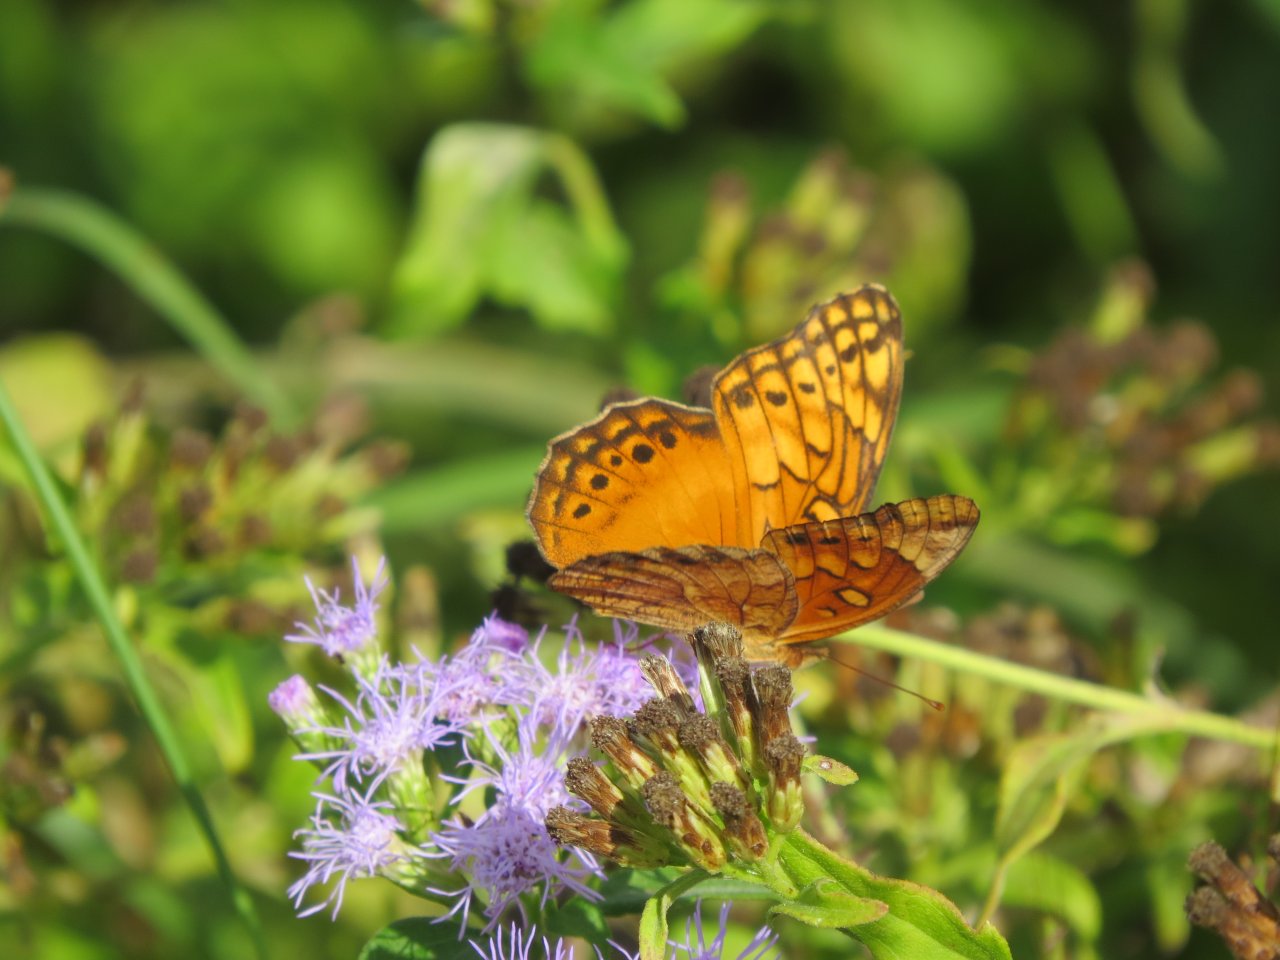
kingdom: Animalia
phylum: Arthropoda
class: Insecta
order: Lepidoptera
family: Nymphalidae
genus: Euptoieta
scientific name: Euptoieta hegesia
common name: Mexican Fritillary
